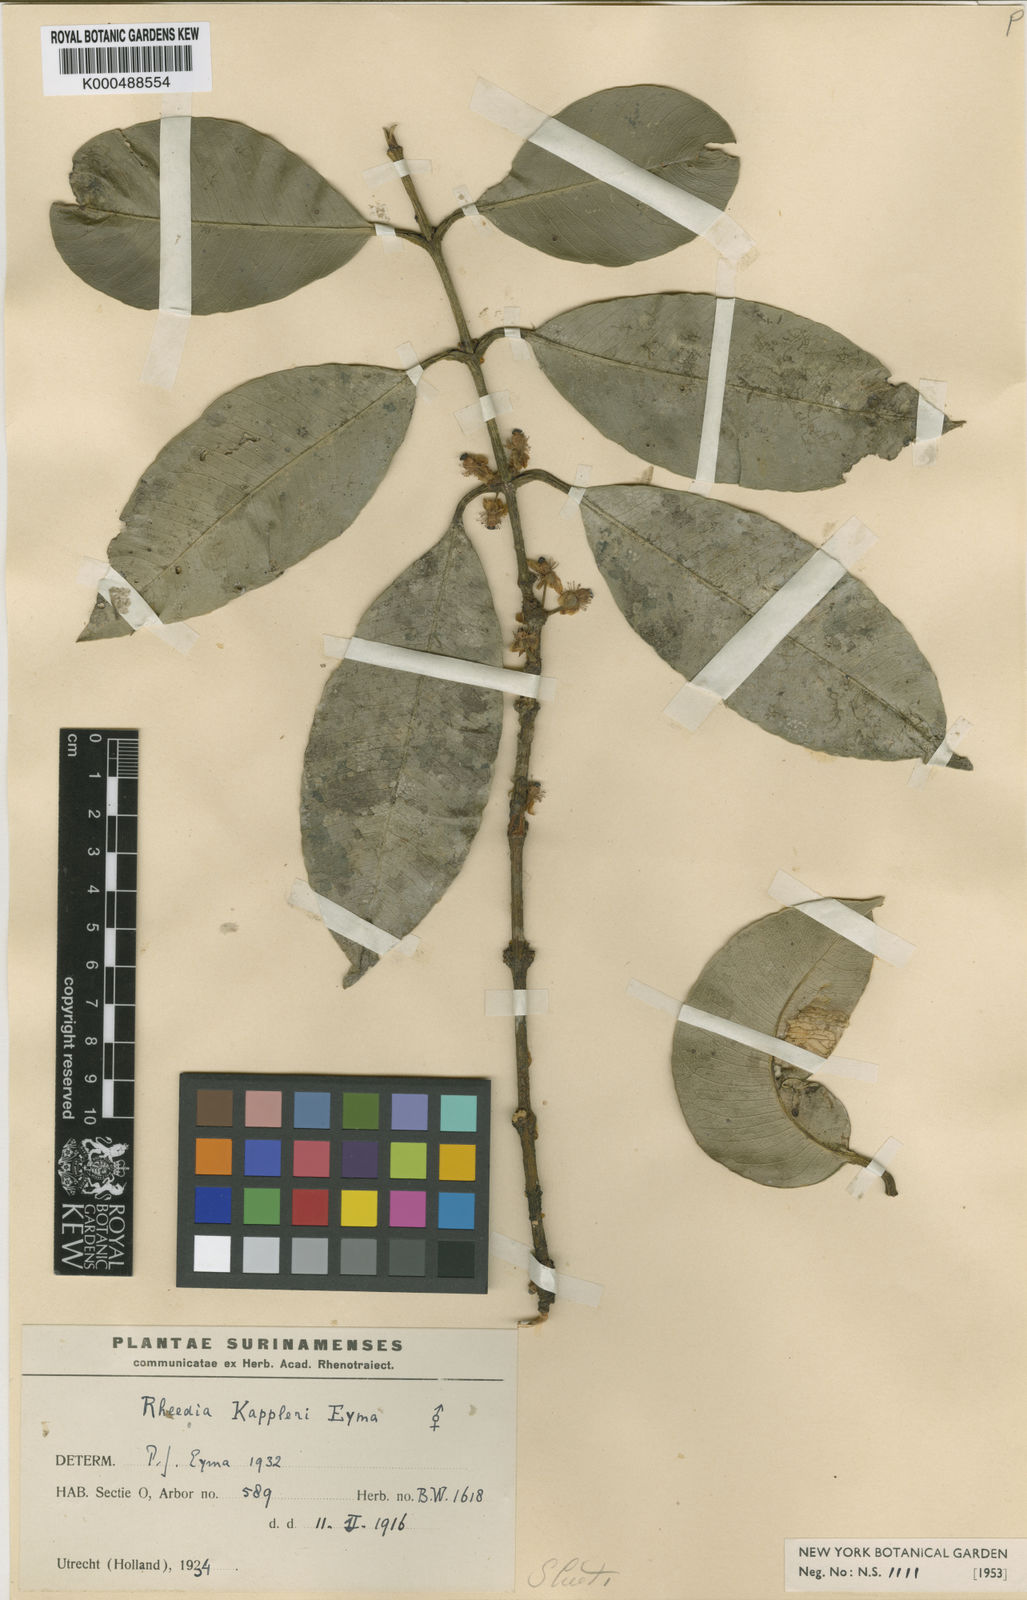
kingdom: Plantae
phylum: Tracheophyta
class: Magnoliopsida
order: Malpighiales
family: Clusiaceae
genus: Garcinia
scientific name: Garcinia
